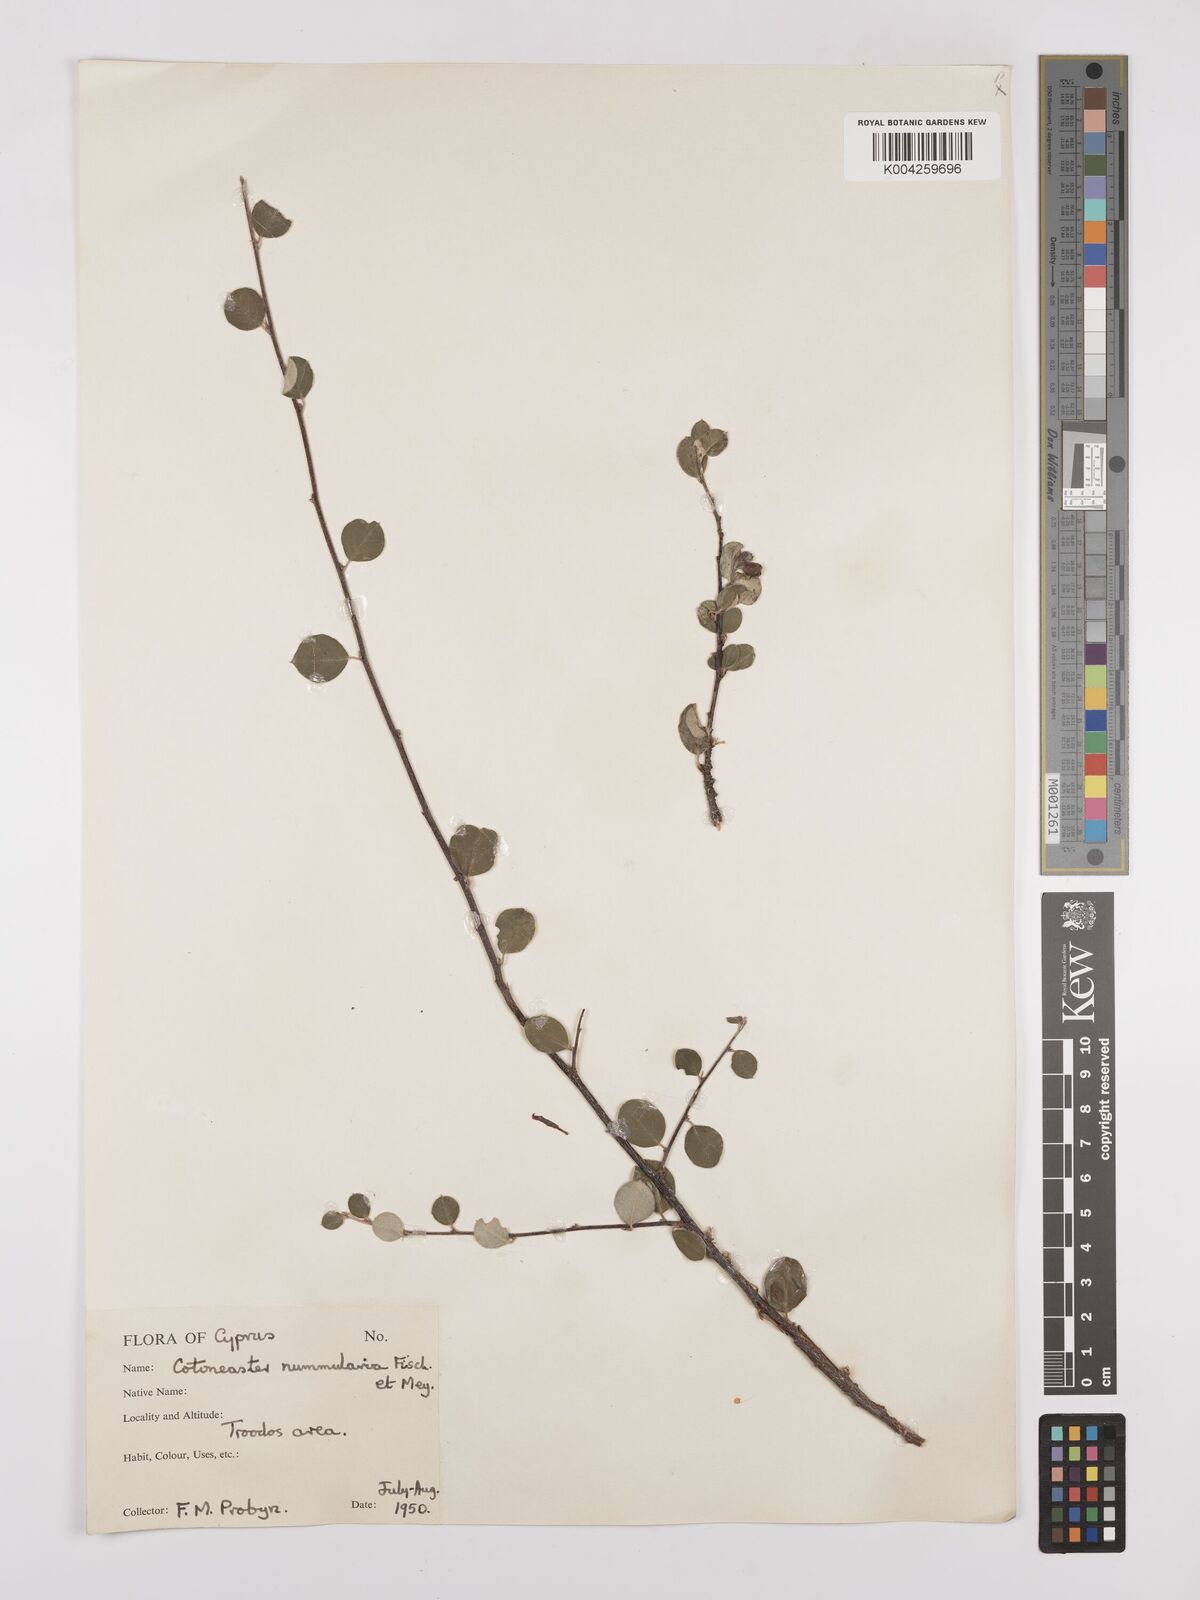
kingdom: Plantae
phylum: Tracheophyta
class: Magnoliopsida
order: Rosales
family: Rosaceae
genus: Cotoneaster
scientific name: Cotoneaster racemiflorus
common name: Cluster-flower cotoneaster
